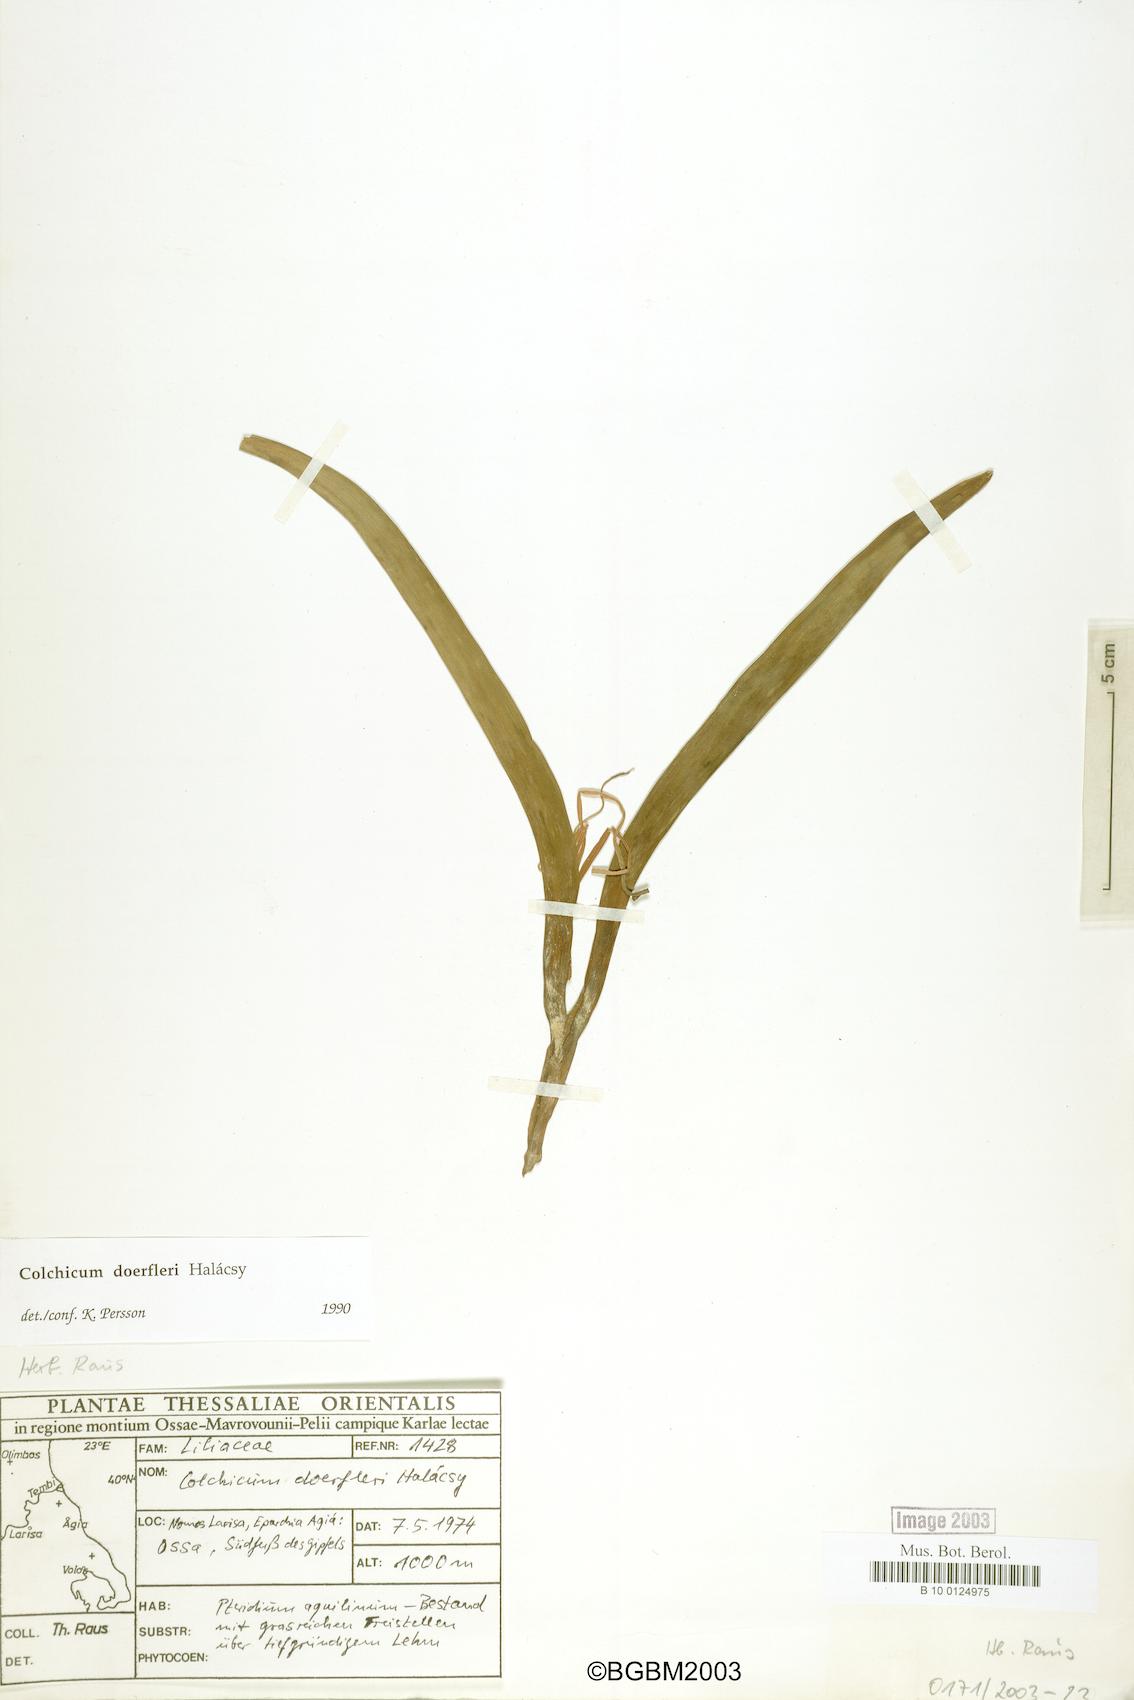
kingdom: Plantae
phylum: Tracheophyta
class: Liliopsida
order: Liliales
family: Colchicaceae
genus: Colchicum
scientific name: Colchicum doerfleri
